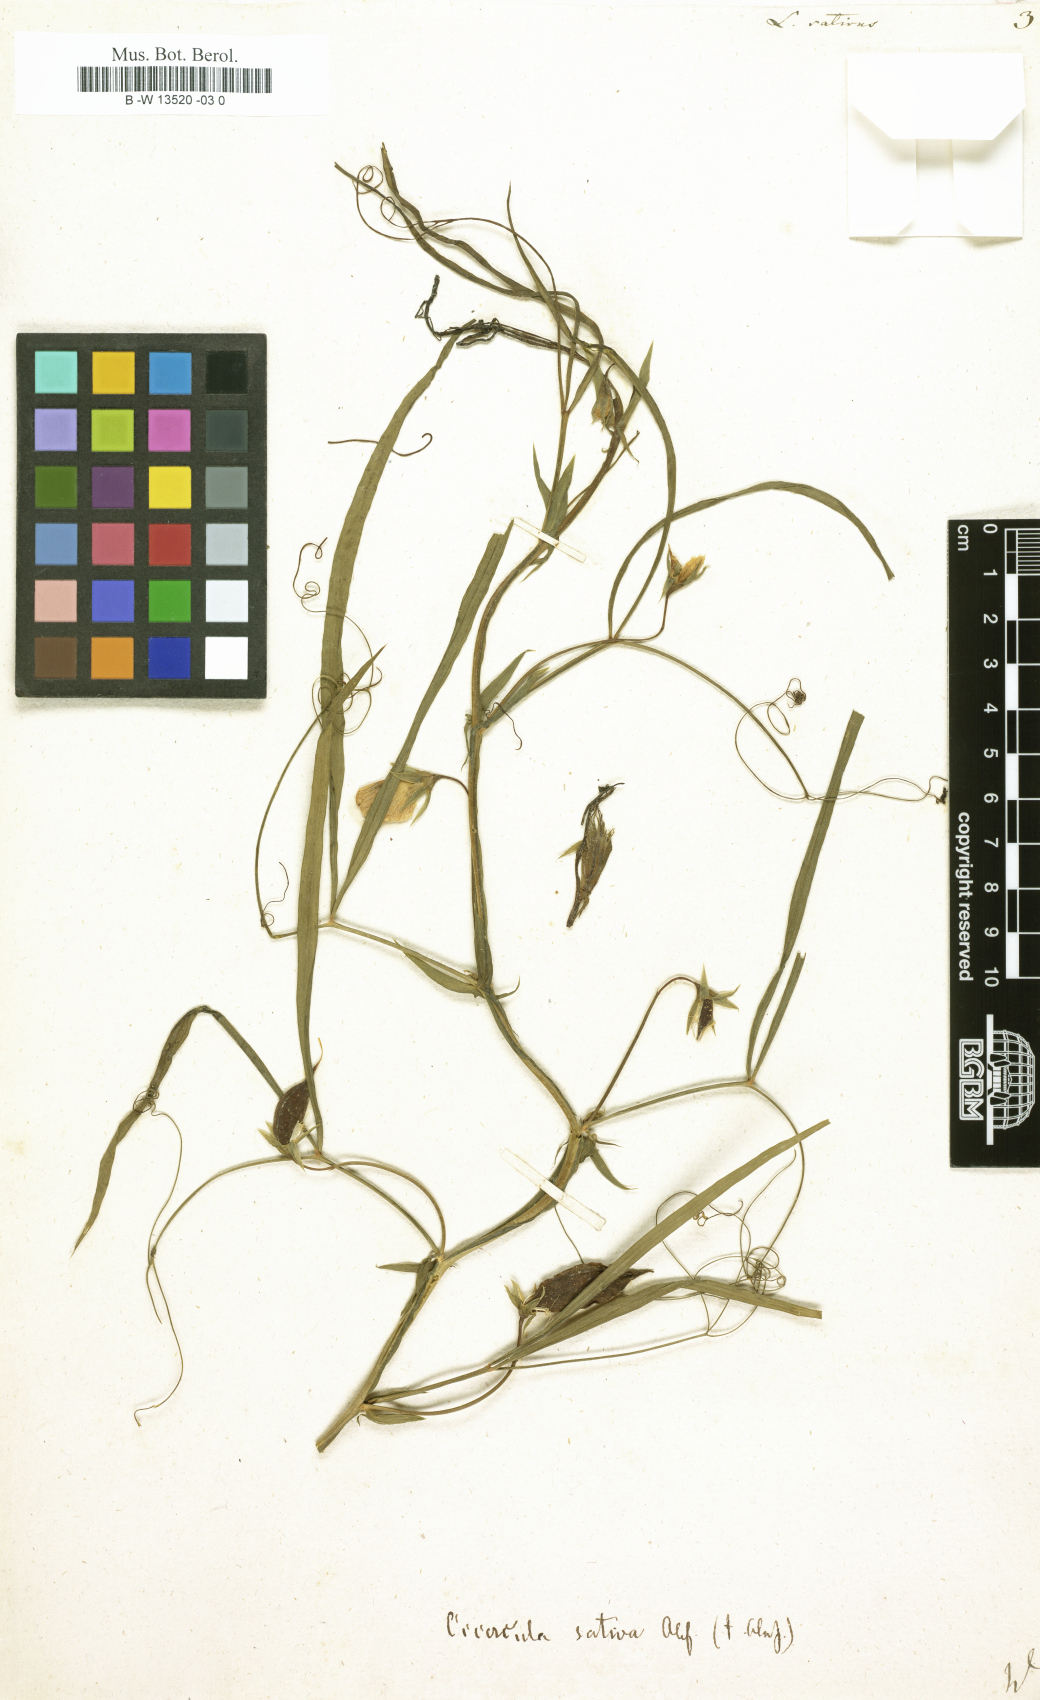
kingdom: Plantae
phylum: Tracheophyta
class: Magnoliopsida
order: Fabales
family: Fabaceae
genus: Lathyrus
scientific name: Lathyrus sativus
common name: Indian pea
